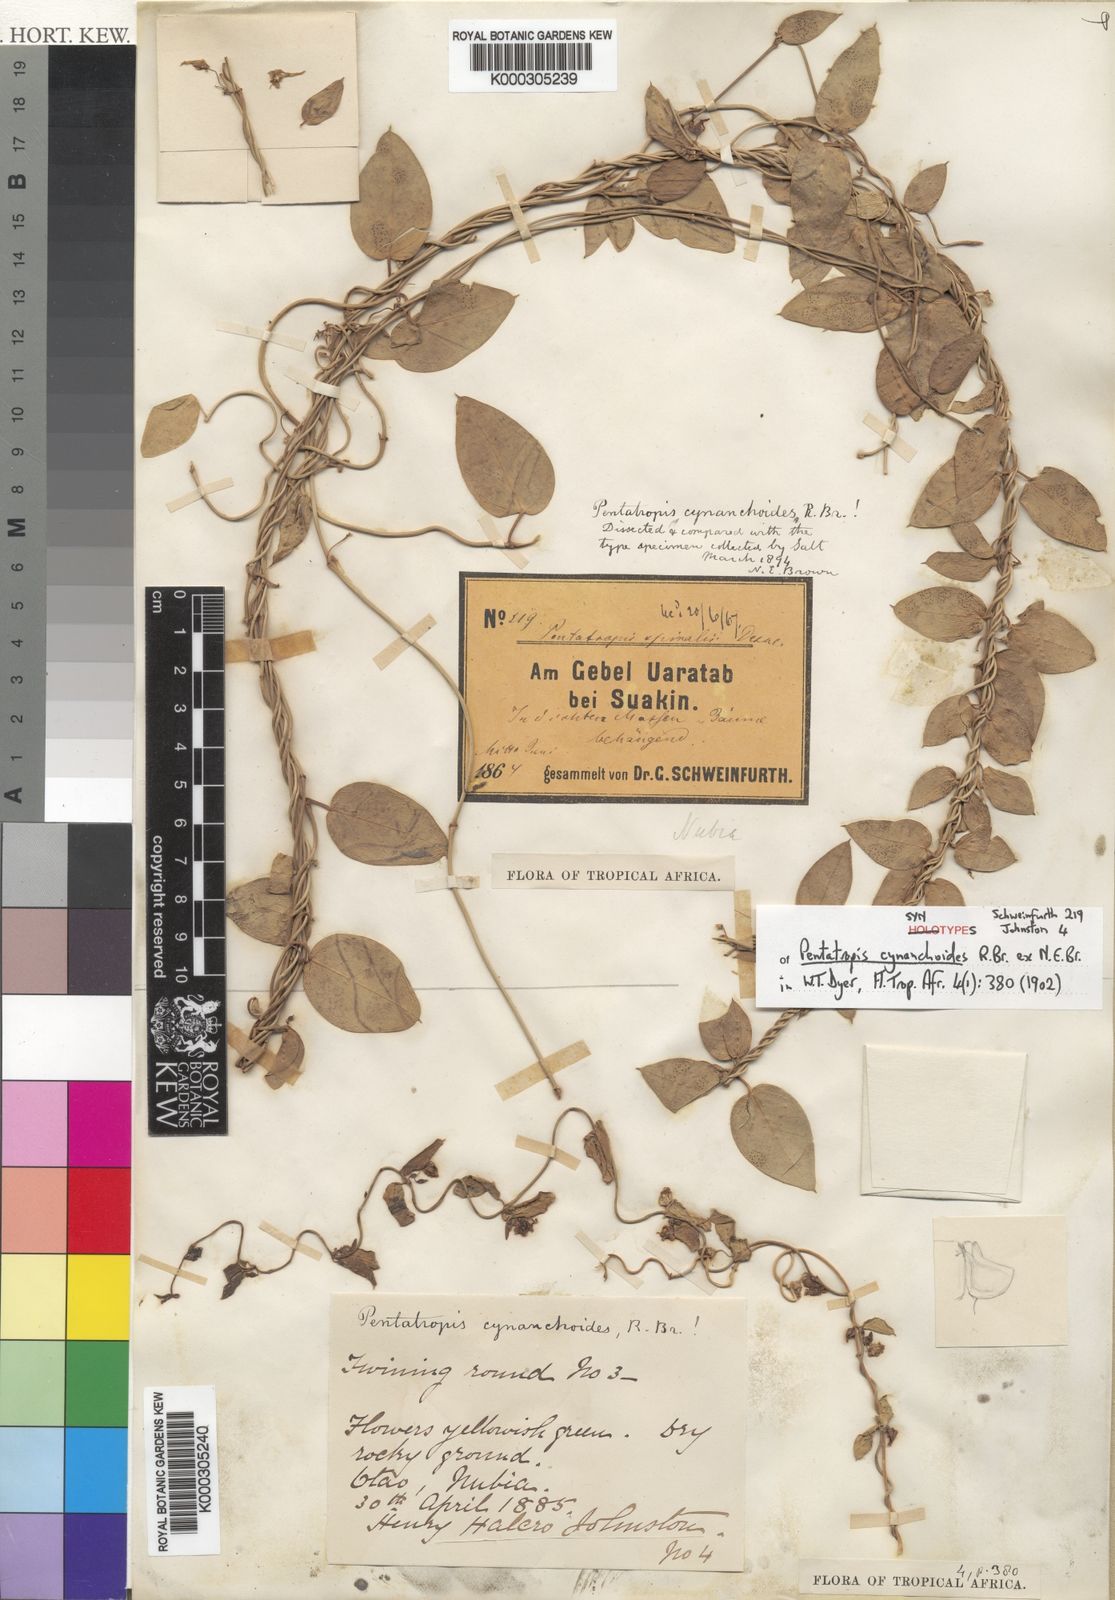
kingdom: Plantae
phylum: Tracheophyta
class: Magnoliopsida
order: Gentianales
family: Apocynaceae
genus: Pentatropis
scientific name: Pentatropis nivalis
